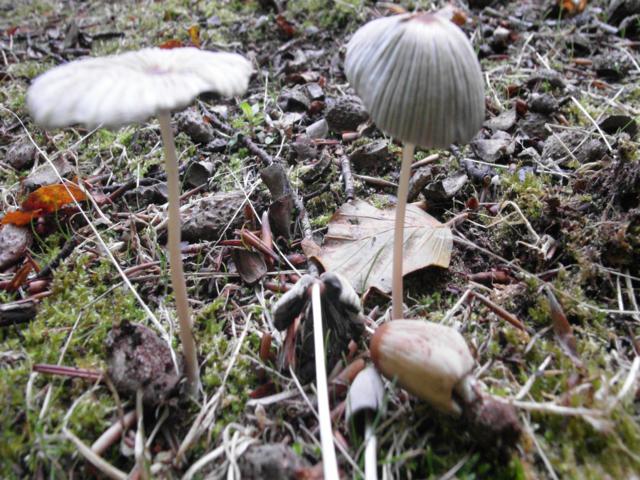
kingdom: Fungi
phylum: Basidiomycota
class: Agaricomycetes
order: Agaricales
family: Psathyrellaceae
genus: Parasola
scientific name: Parasola plicatilis
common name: plæne-hjulhat
